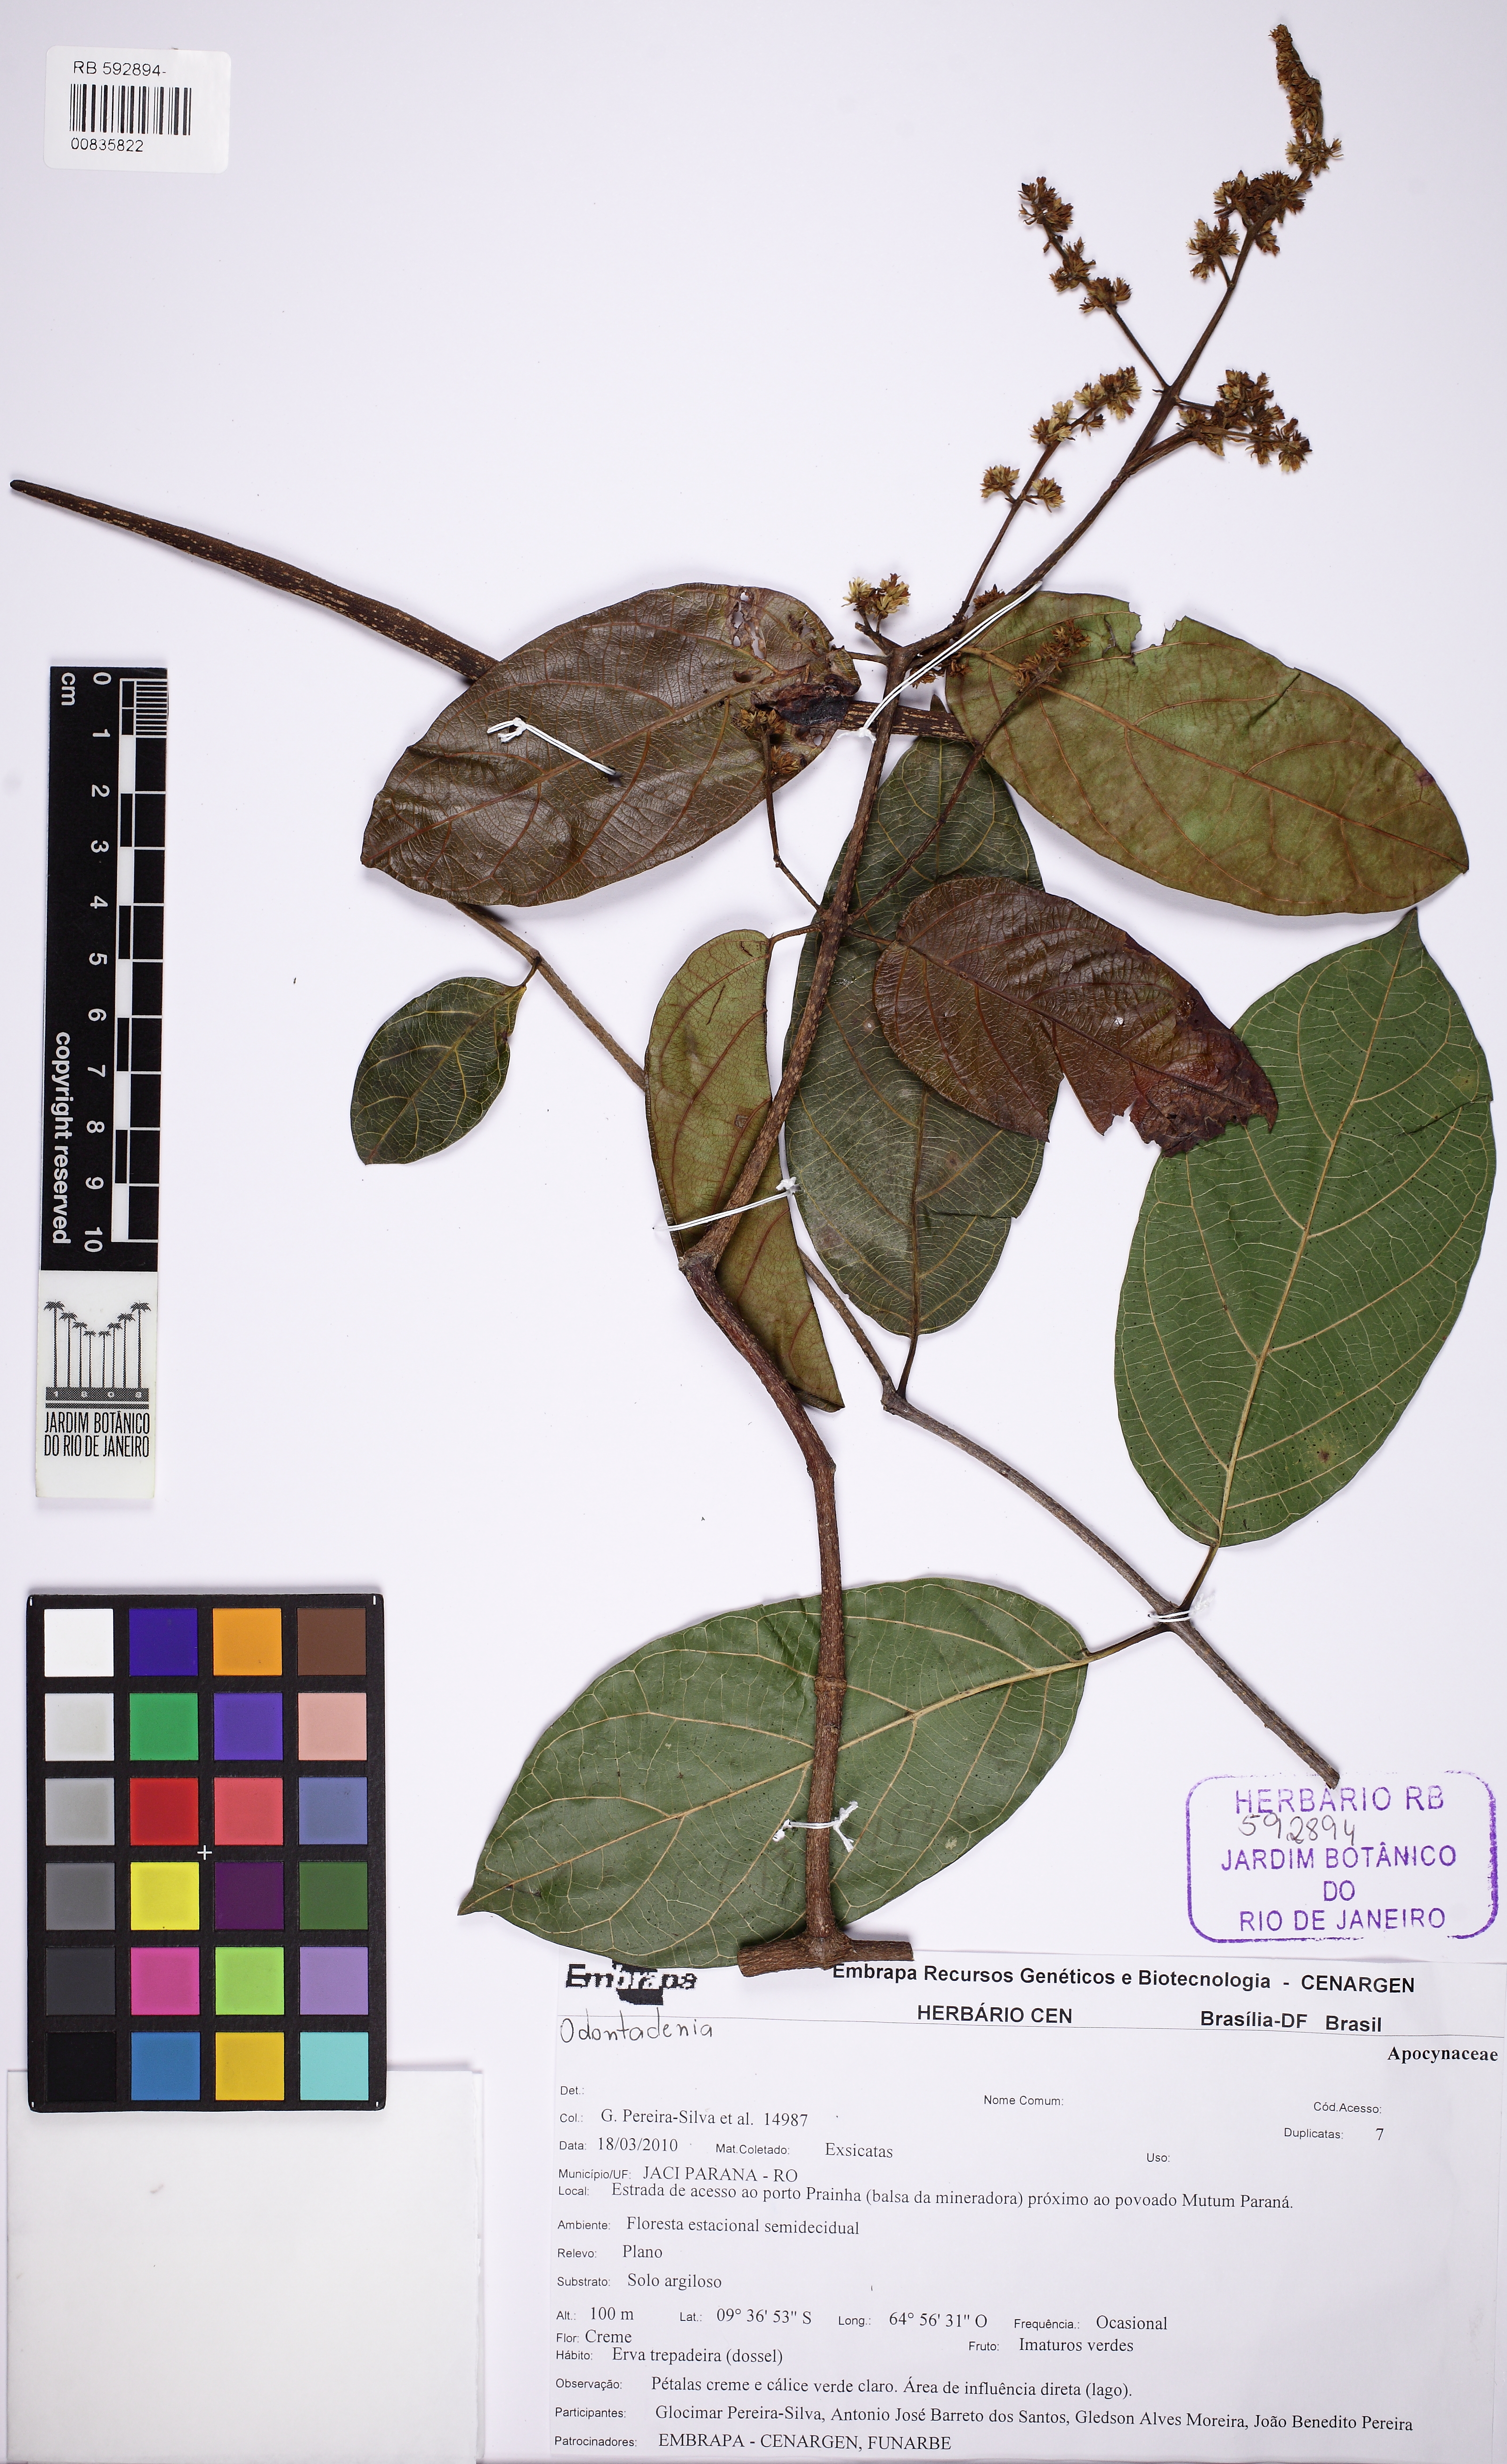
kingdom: Plantae
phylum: Tracheophyta
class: Magnoliopsida
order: Gentianales
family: Apocynaceae
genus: Odontadenia
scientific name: Odontadenia
